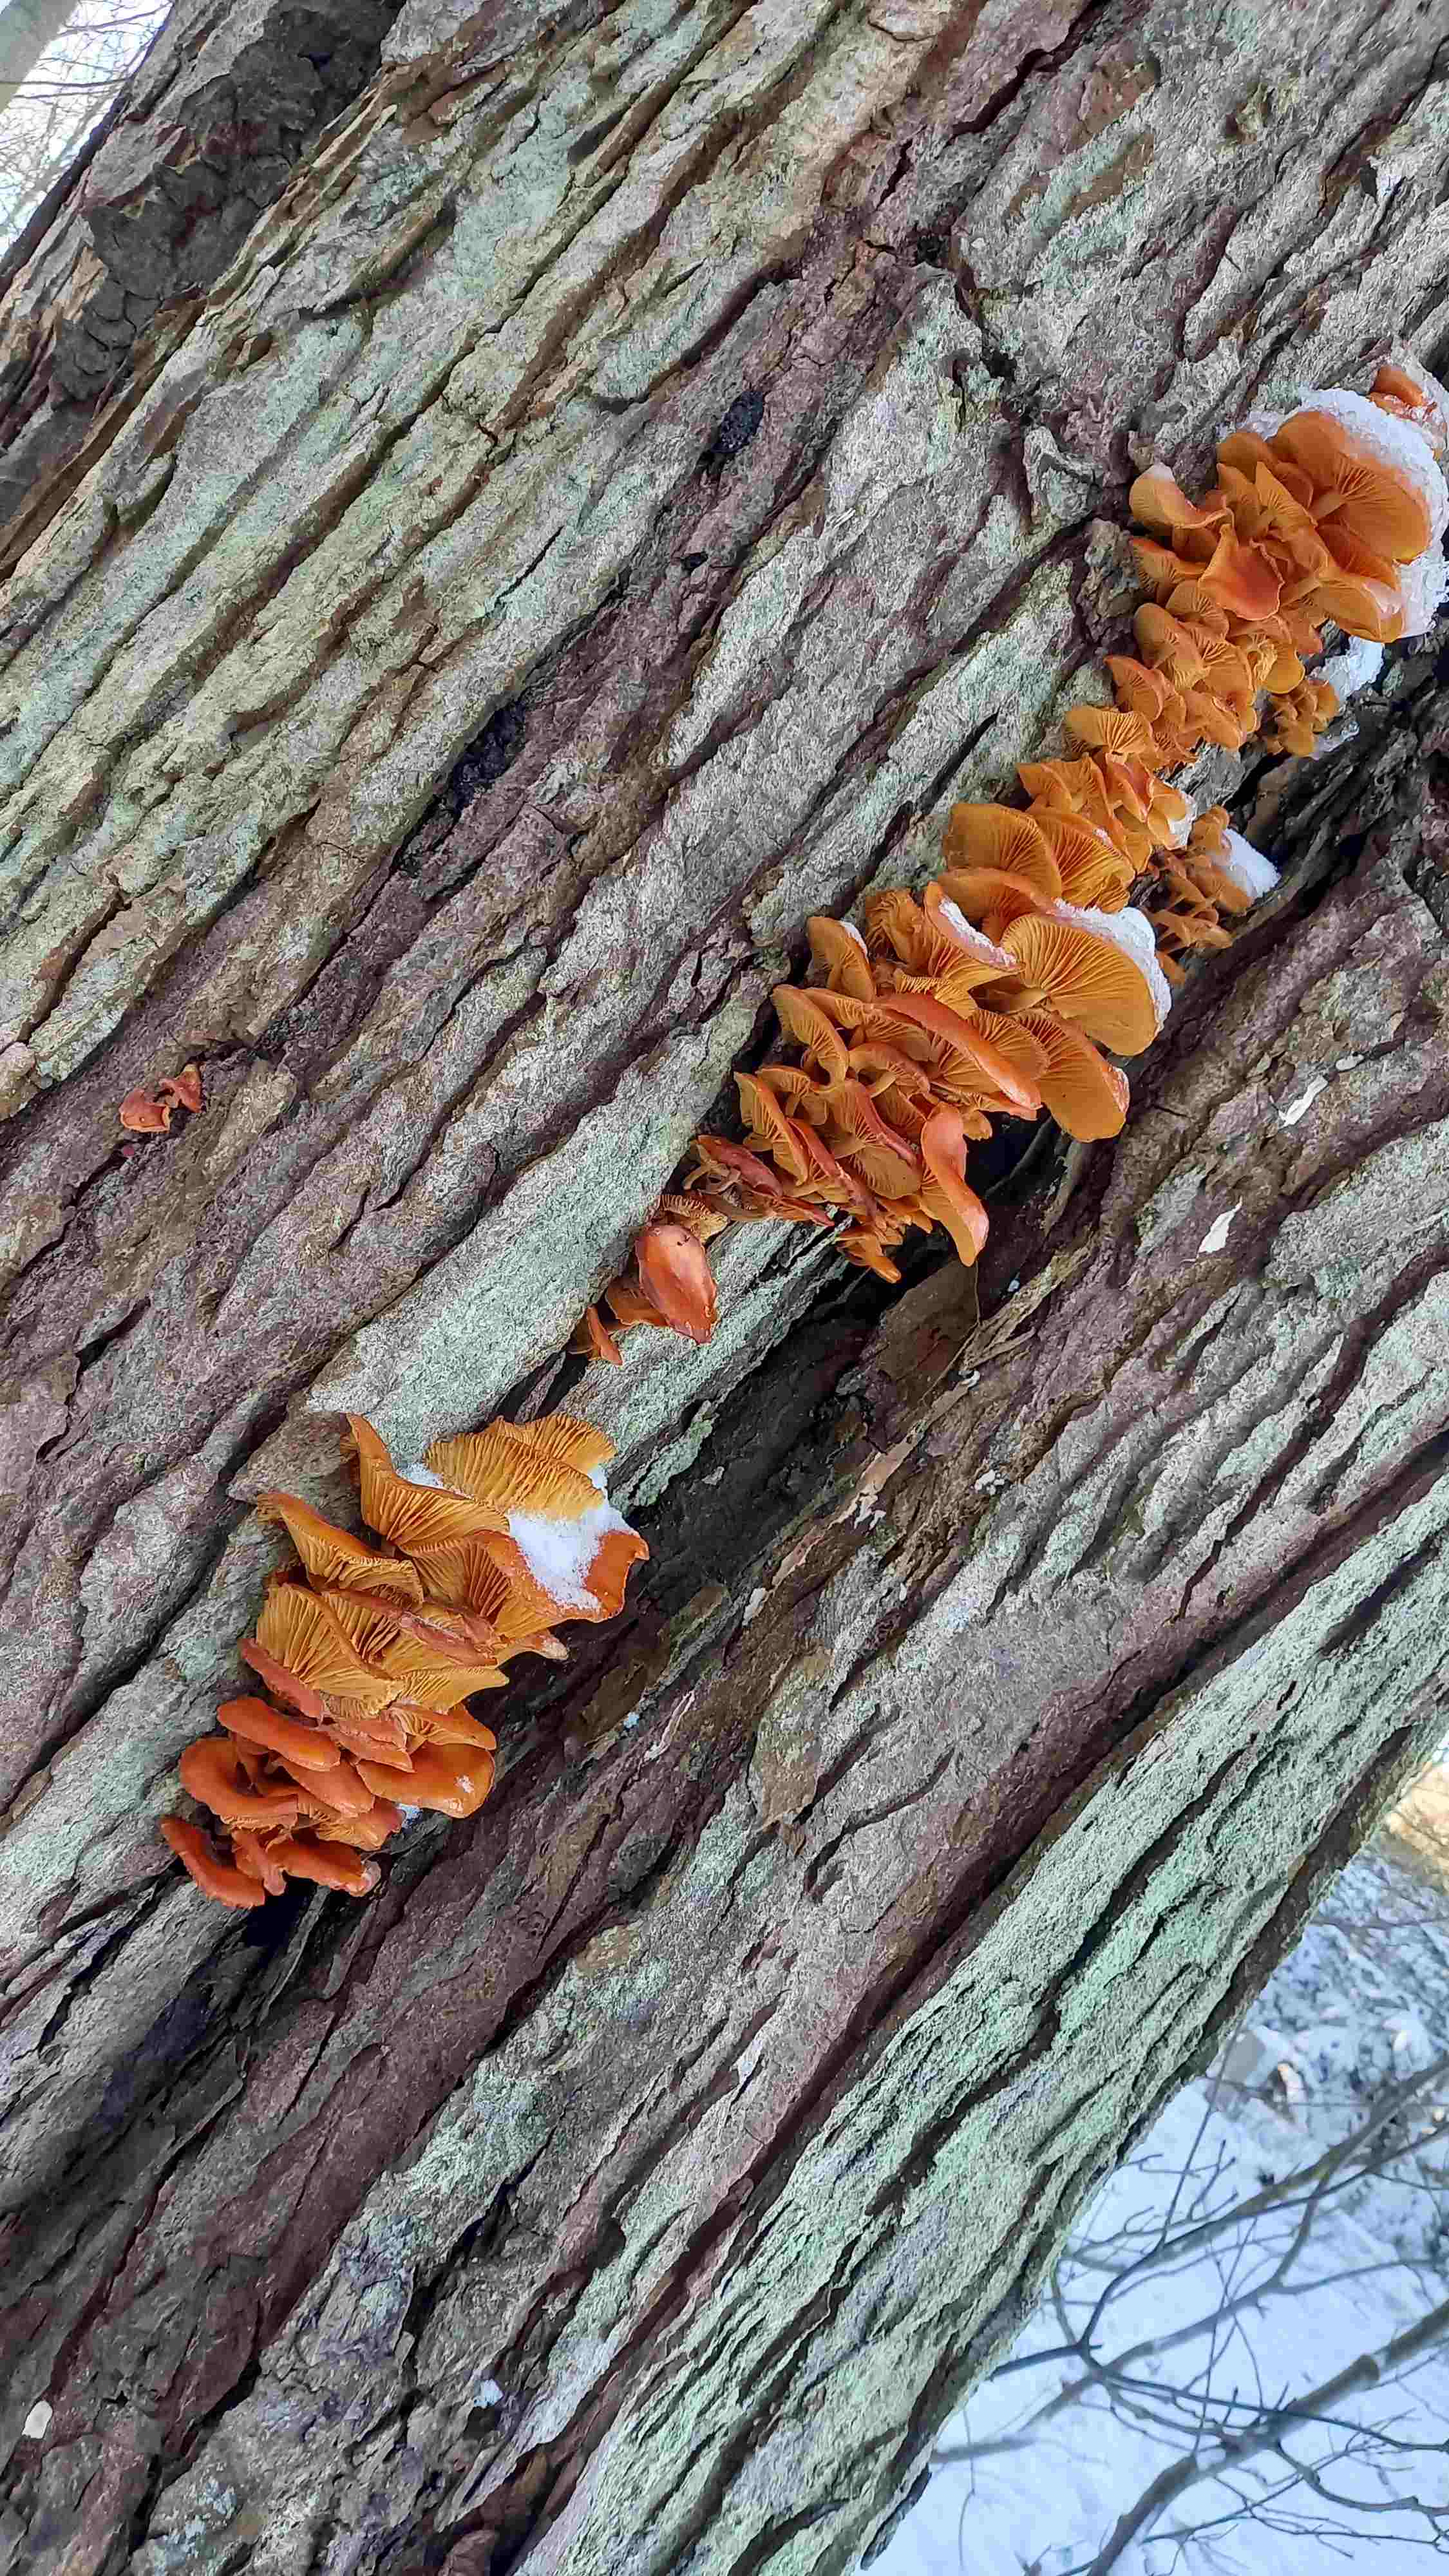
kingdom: Fungi
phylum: Basidiomycota
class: Agaricomycetes
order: Agaricales
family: Physalacriaceae
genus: Flammulina
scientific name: Flammulina velutipes
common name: gul fløjlsfod
